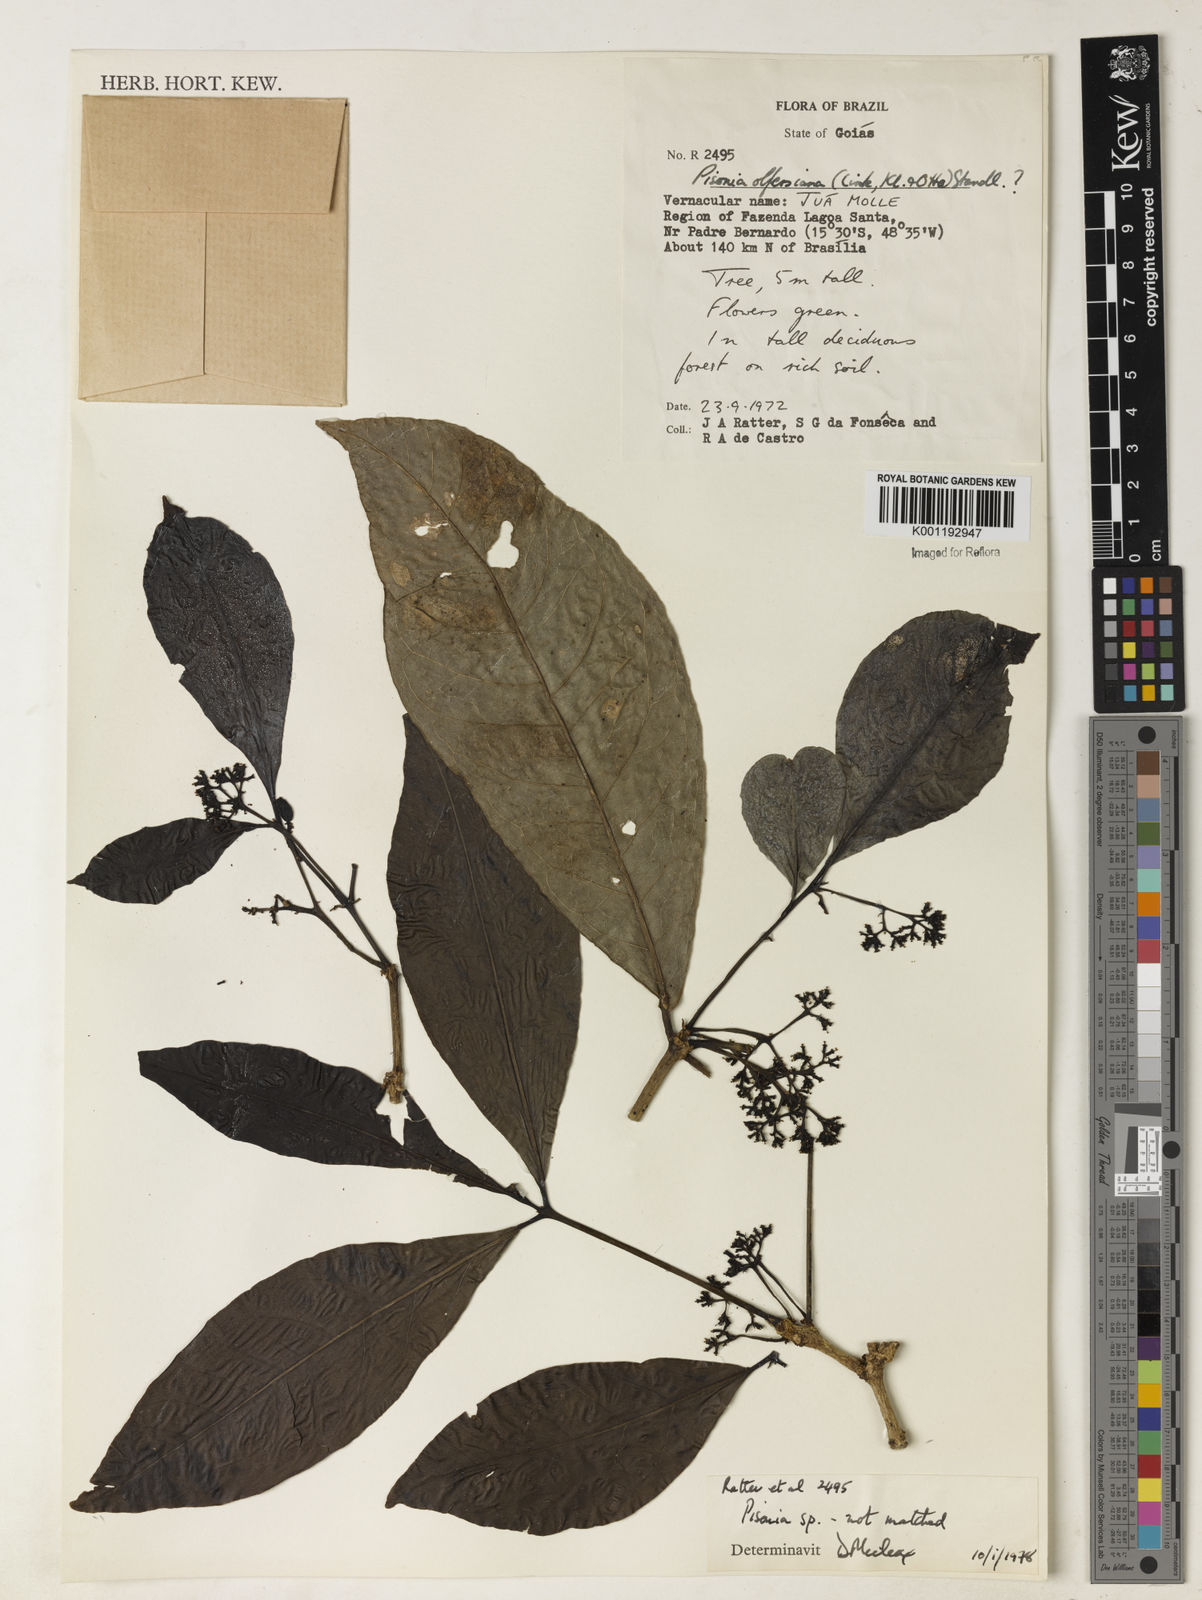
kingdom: Plantae
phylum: Tracheophyta
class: Magnoliopsida
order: Caryophyllales
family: Nyctaginaceae
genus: Guapira
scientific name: Guapira
